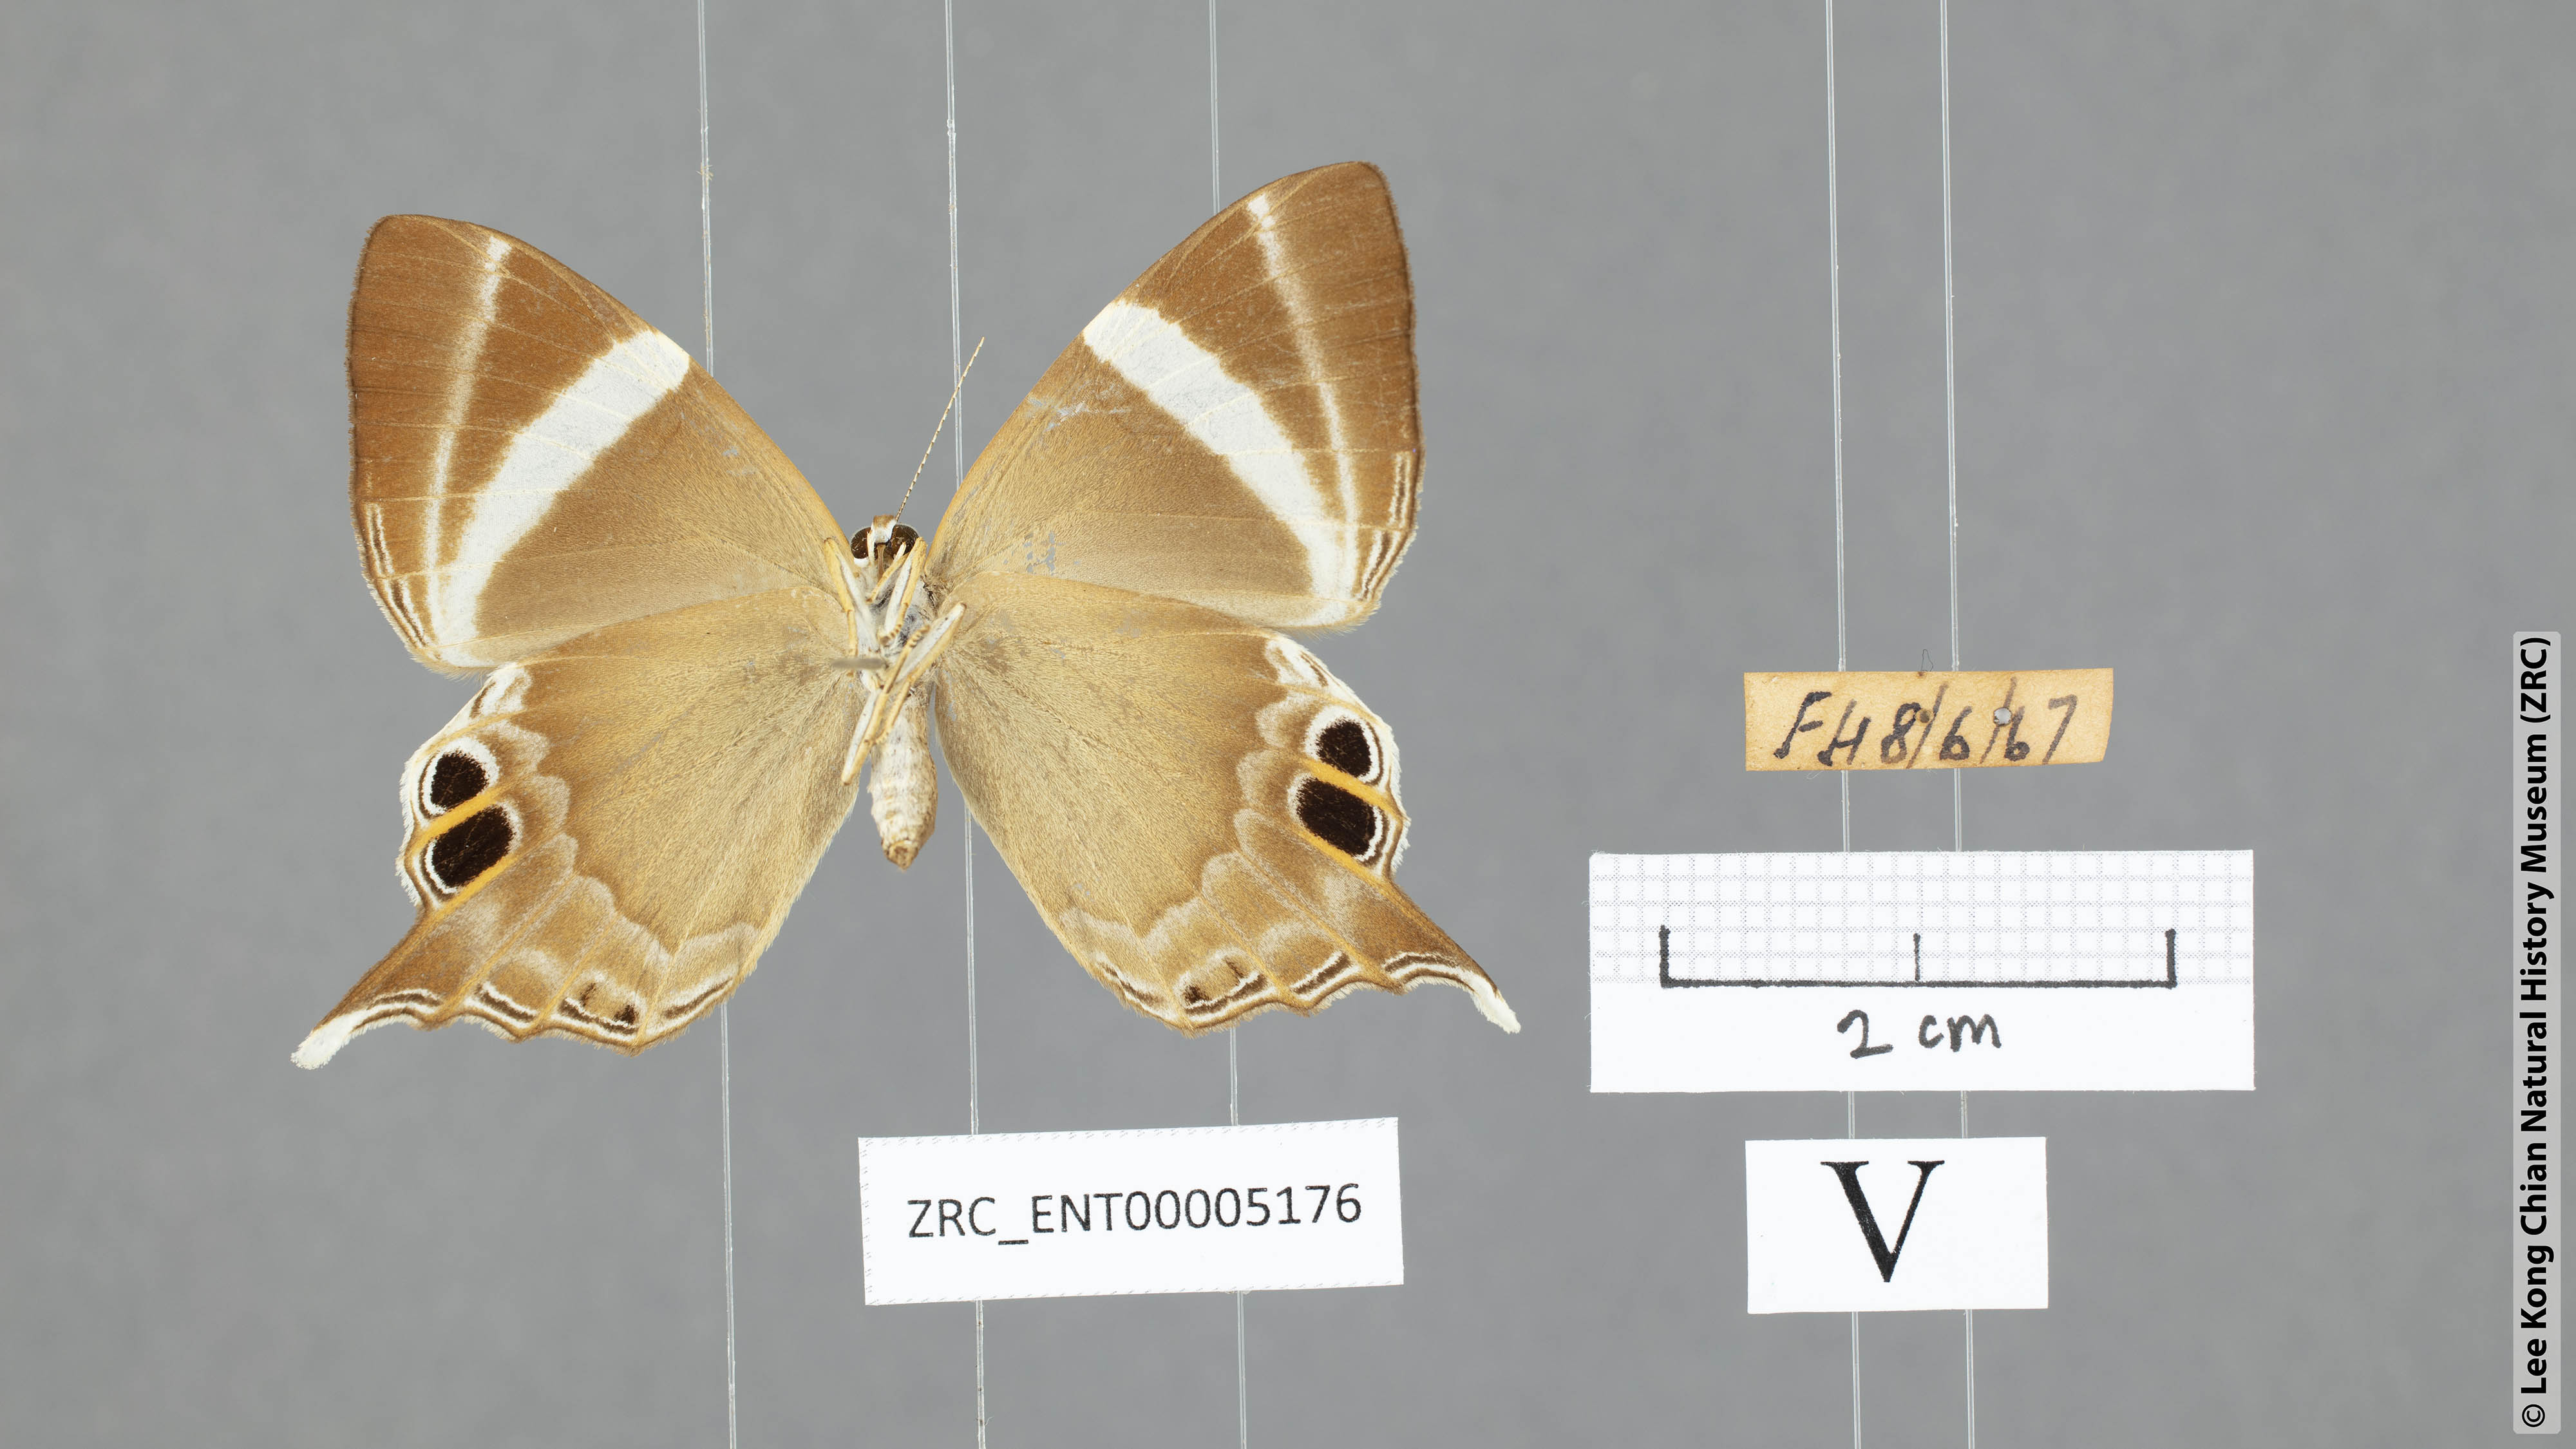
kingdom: Animalia
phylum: Arthropoda
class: Insecta
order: Lepidoptera
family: Riodinidae
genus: Archigenes
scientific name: Archigenes neophron
